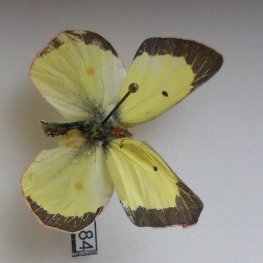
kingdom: Animalia
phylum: Arthropoda
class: Insecta
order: Lepidoptera
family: Pieridae
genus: Colias
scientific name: Colias philodice
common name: Clouded Sulphur
